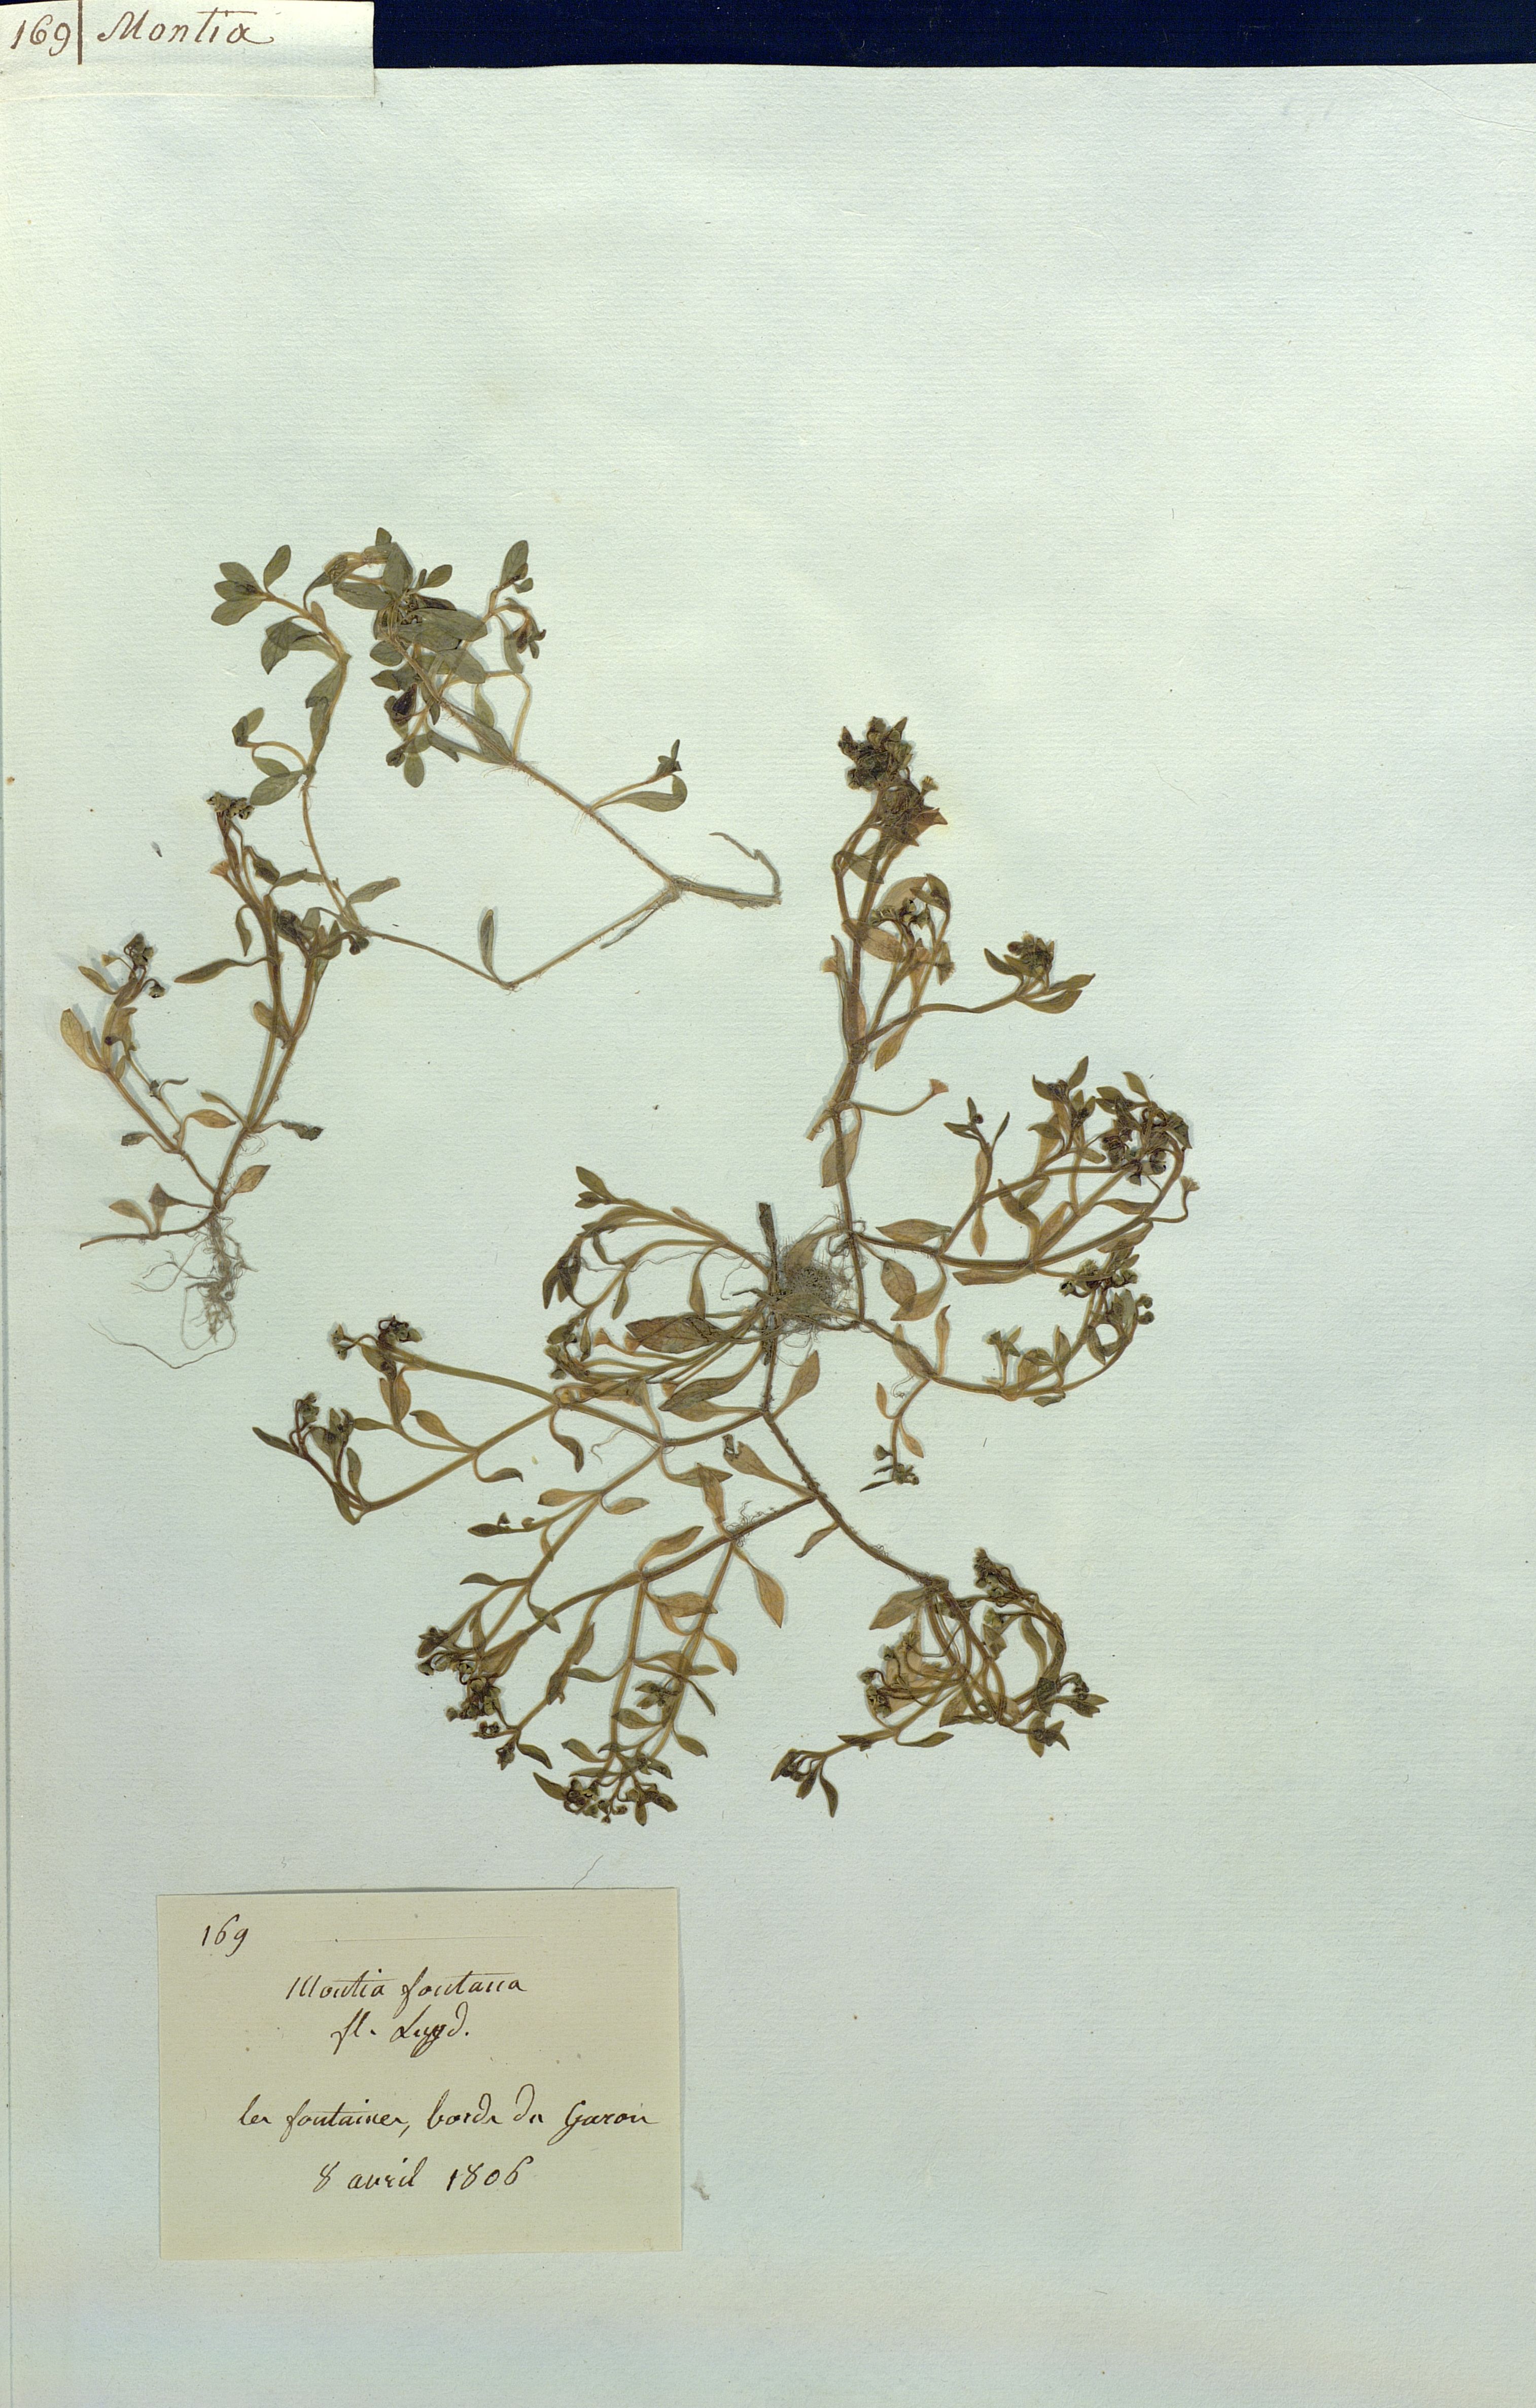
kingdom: Plantae
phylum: Tracheophyta
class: Magnoliopsida
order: Caryophyllales
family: Montiaceae
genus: Montia
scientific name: Montia fontana
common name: Blinks
